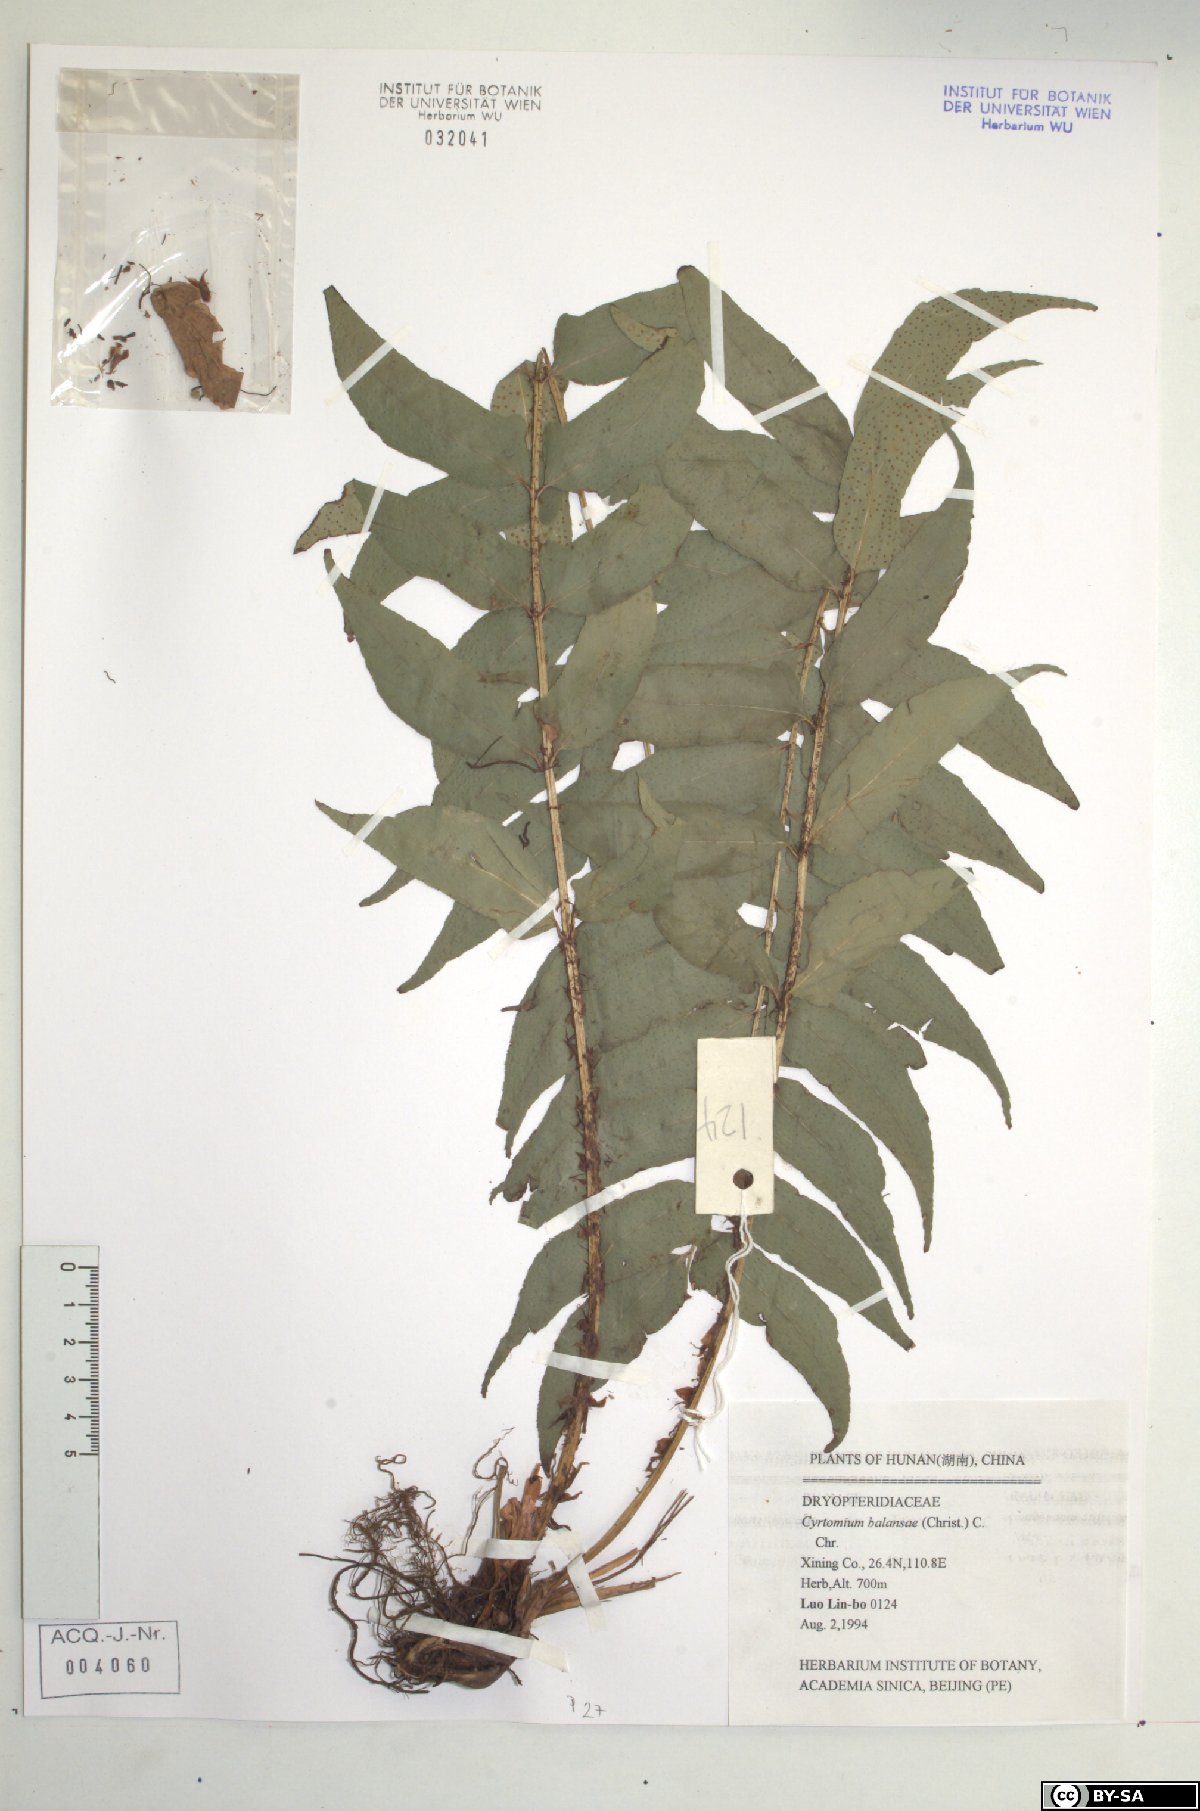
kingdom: Plantae
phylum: Tracheophyta
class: Polypodiopsida
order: Polypodiales
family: Dryopteridaceae
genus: Polystichum
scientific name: Polystichum balansae
